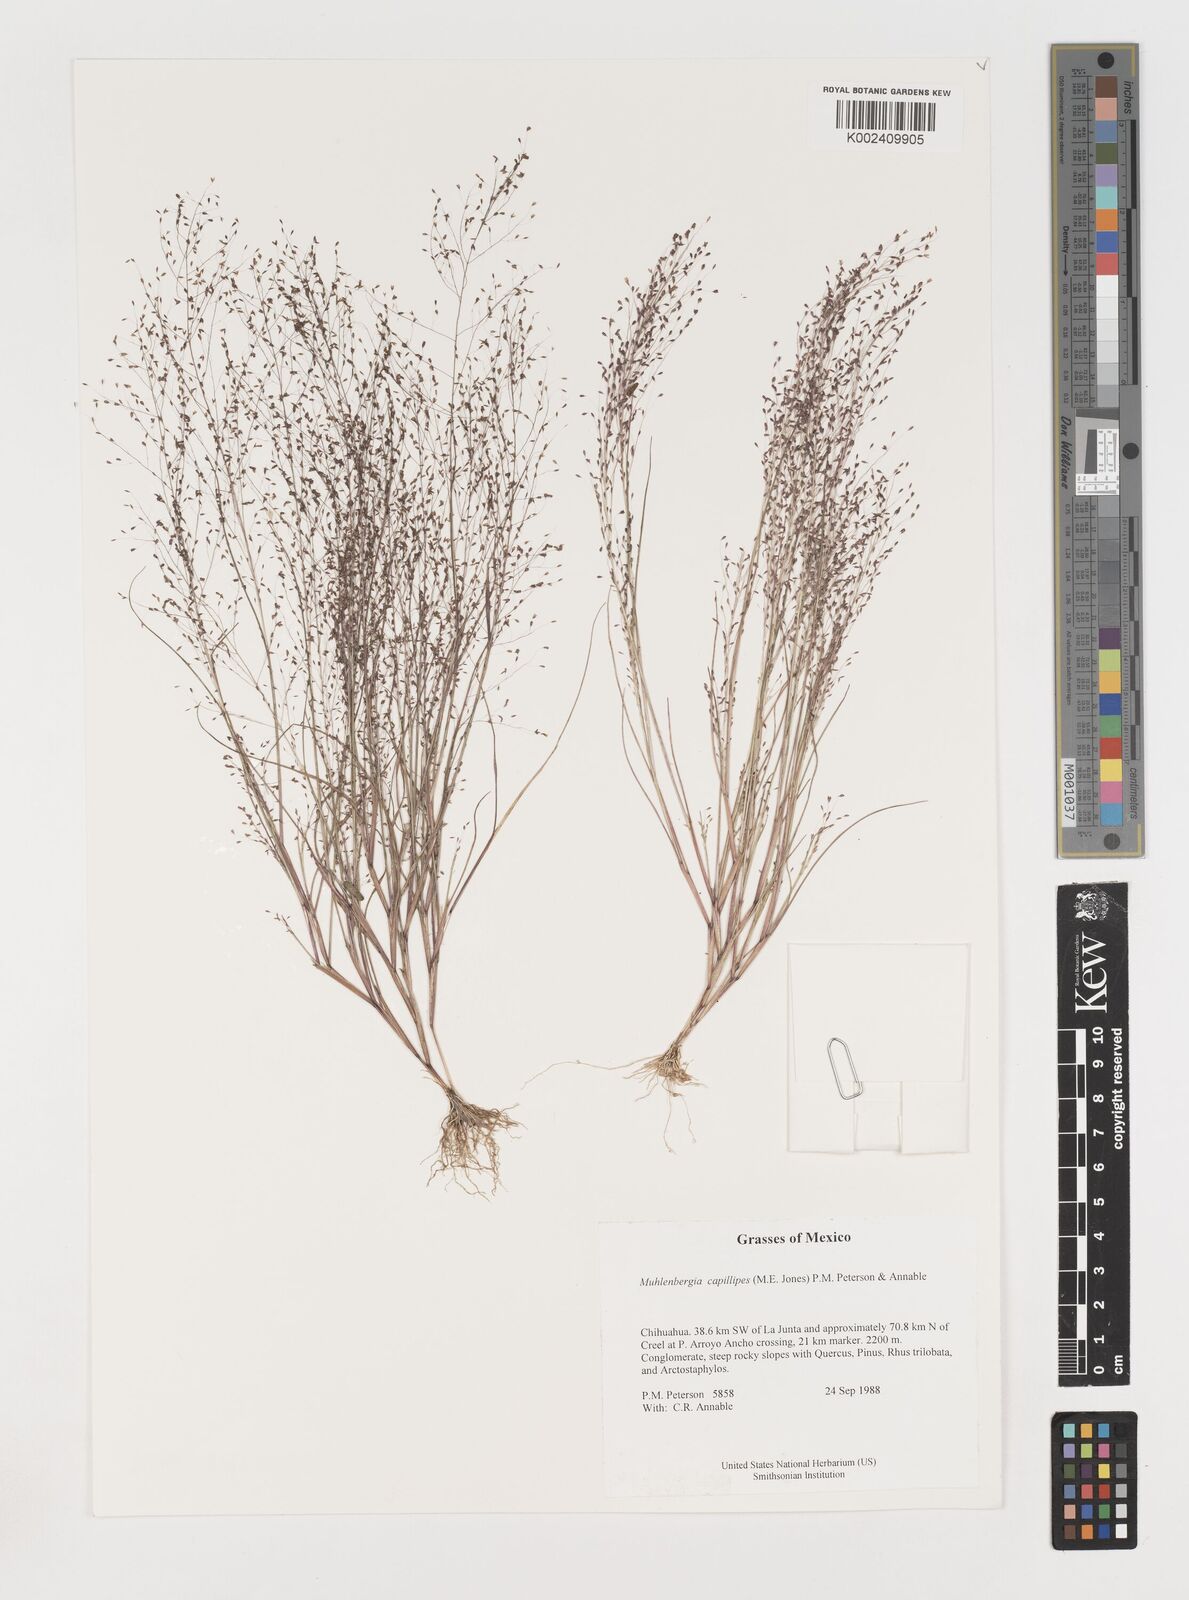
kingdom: Plantae
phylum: Tracheophyta
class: Liliopsida
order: Poales
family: Poaceae
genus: Muhlenbergia
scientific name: Muhlenbergia capillipes
